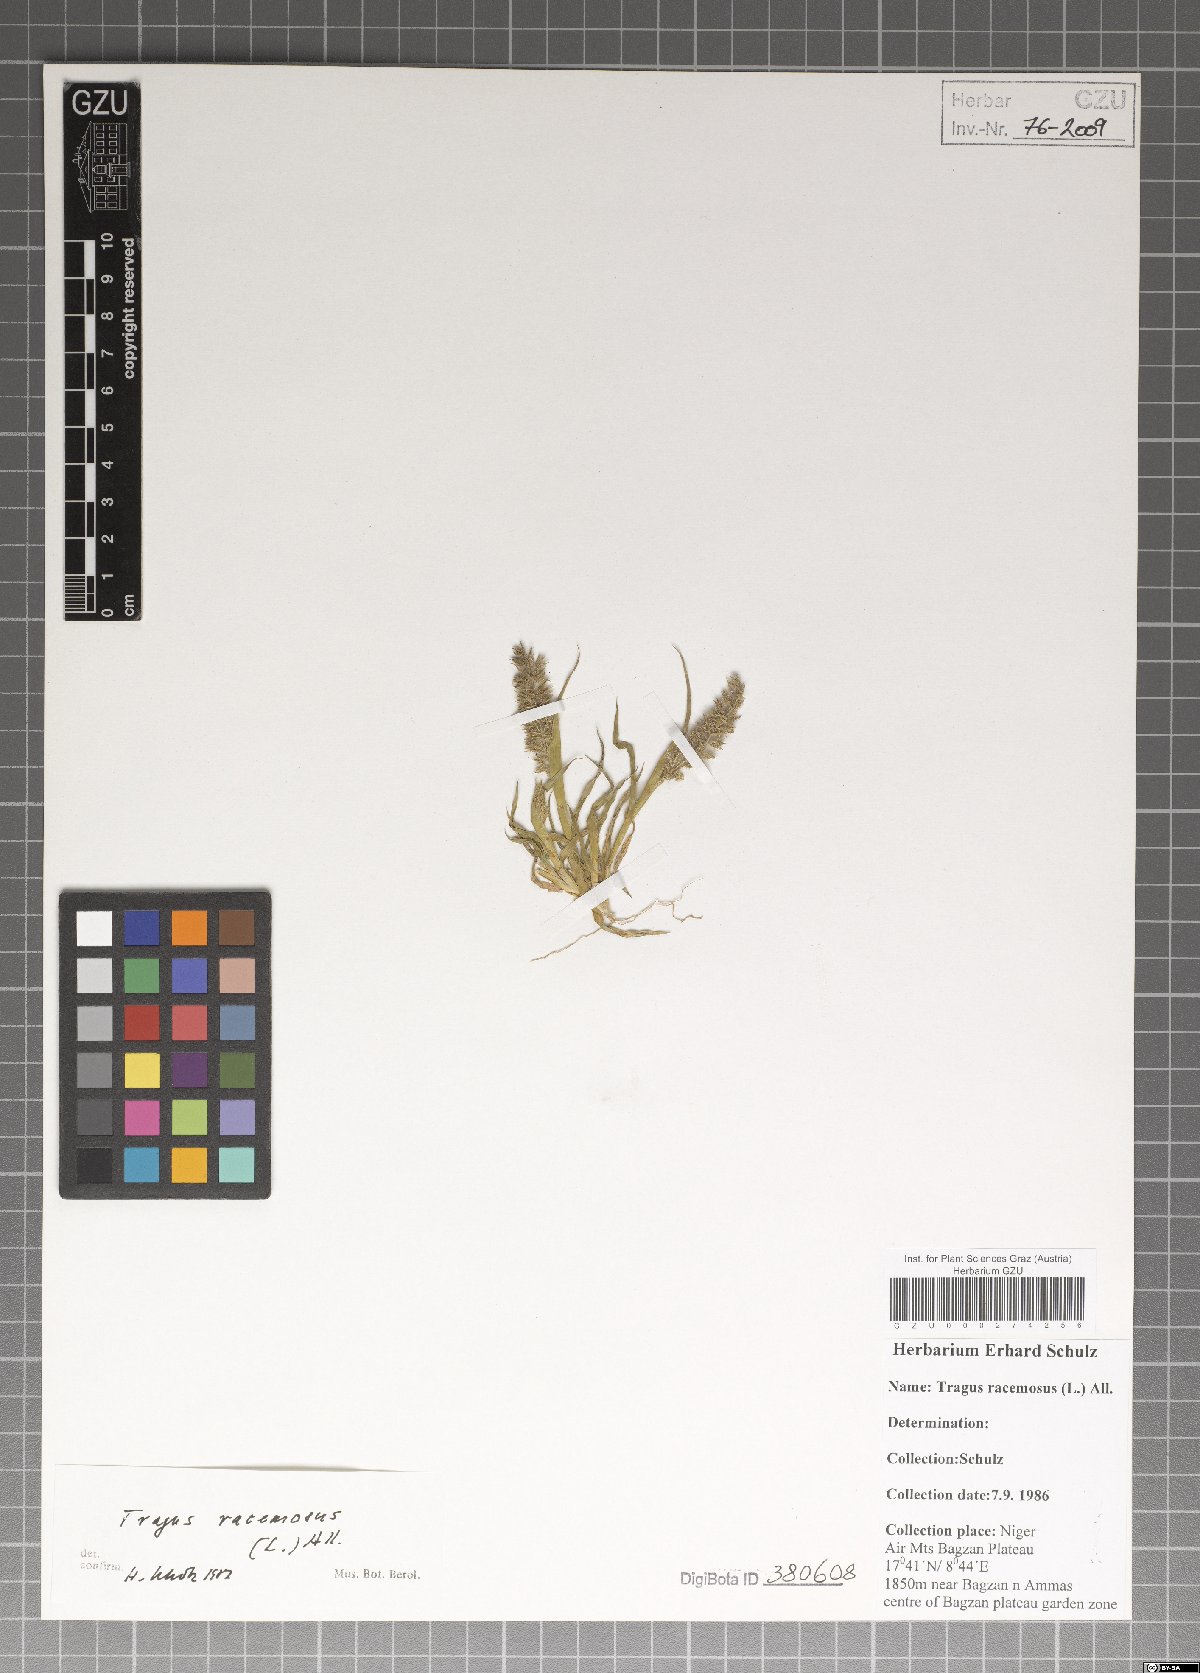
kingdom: Plantae
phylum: Tracheophyta
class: Liliopsida
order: Poales
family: Poaceae
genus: Tragus
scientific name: Tragus racemosus
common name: European bur-grass
